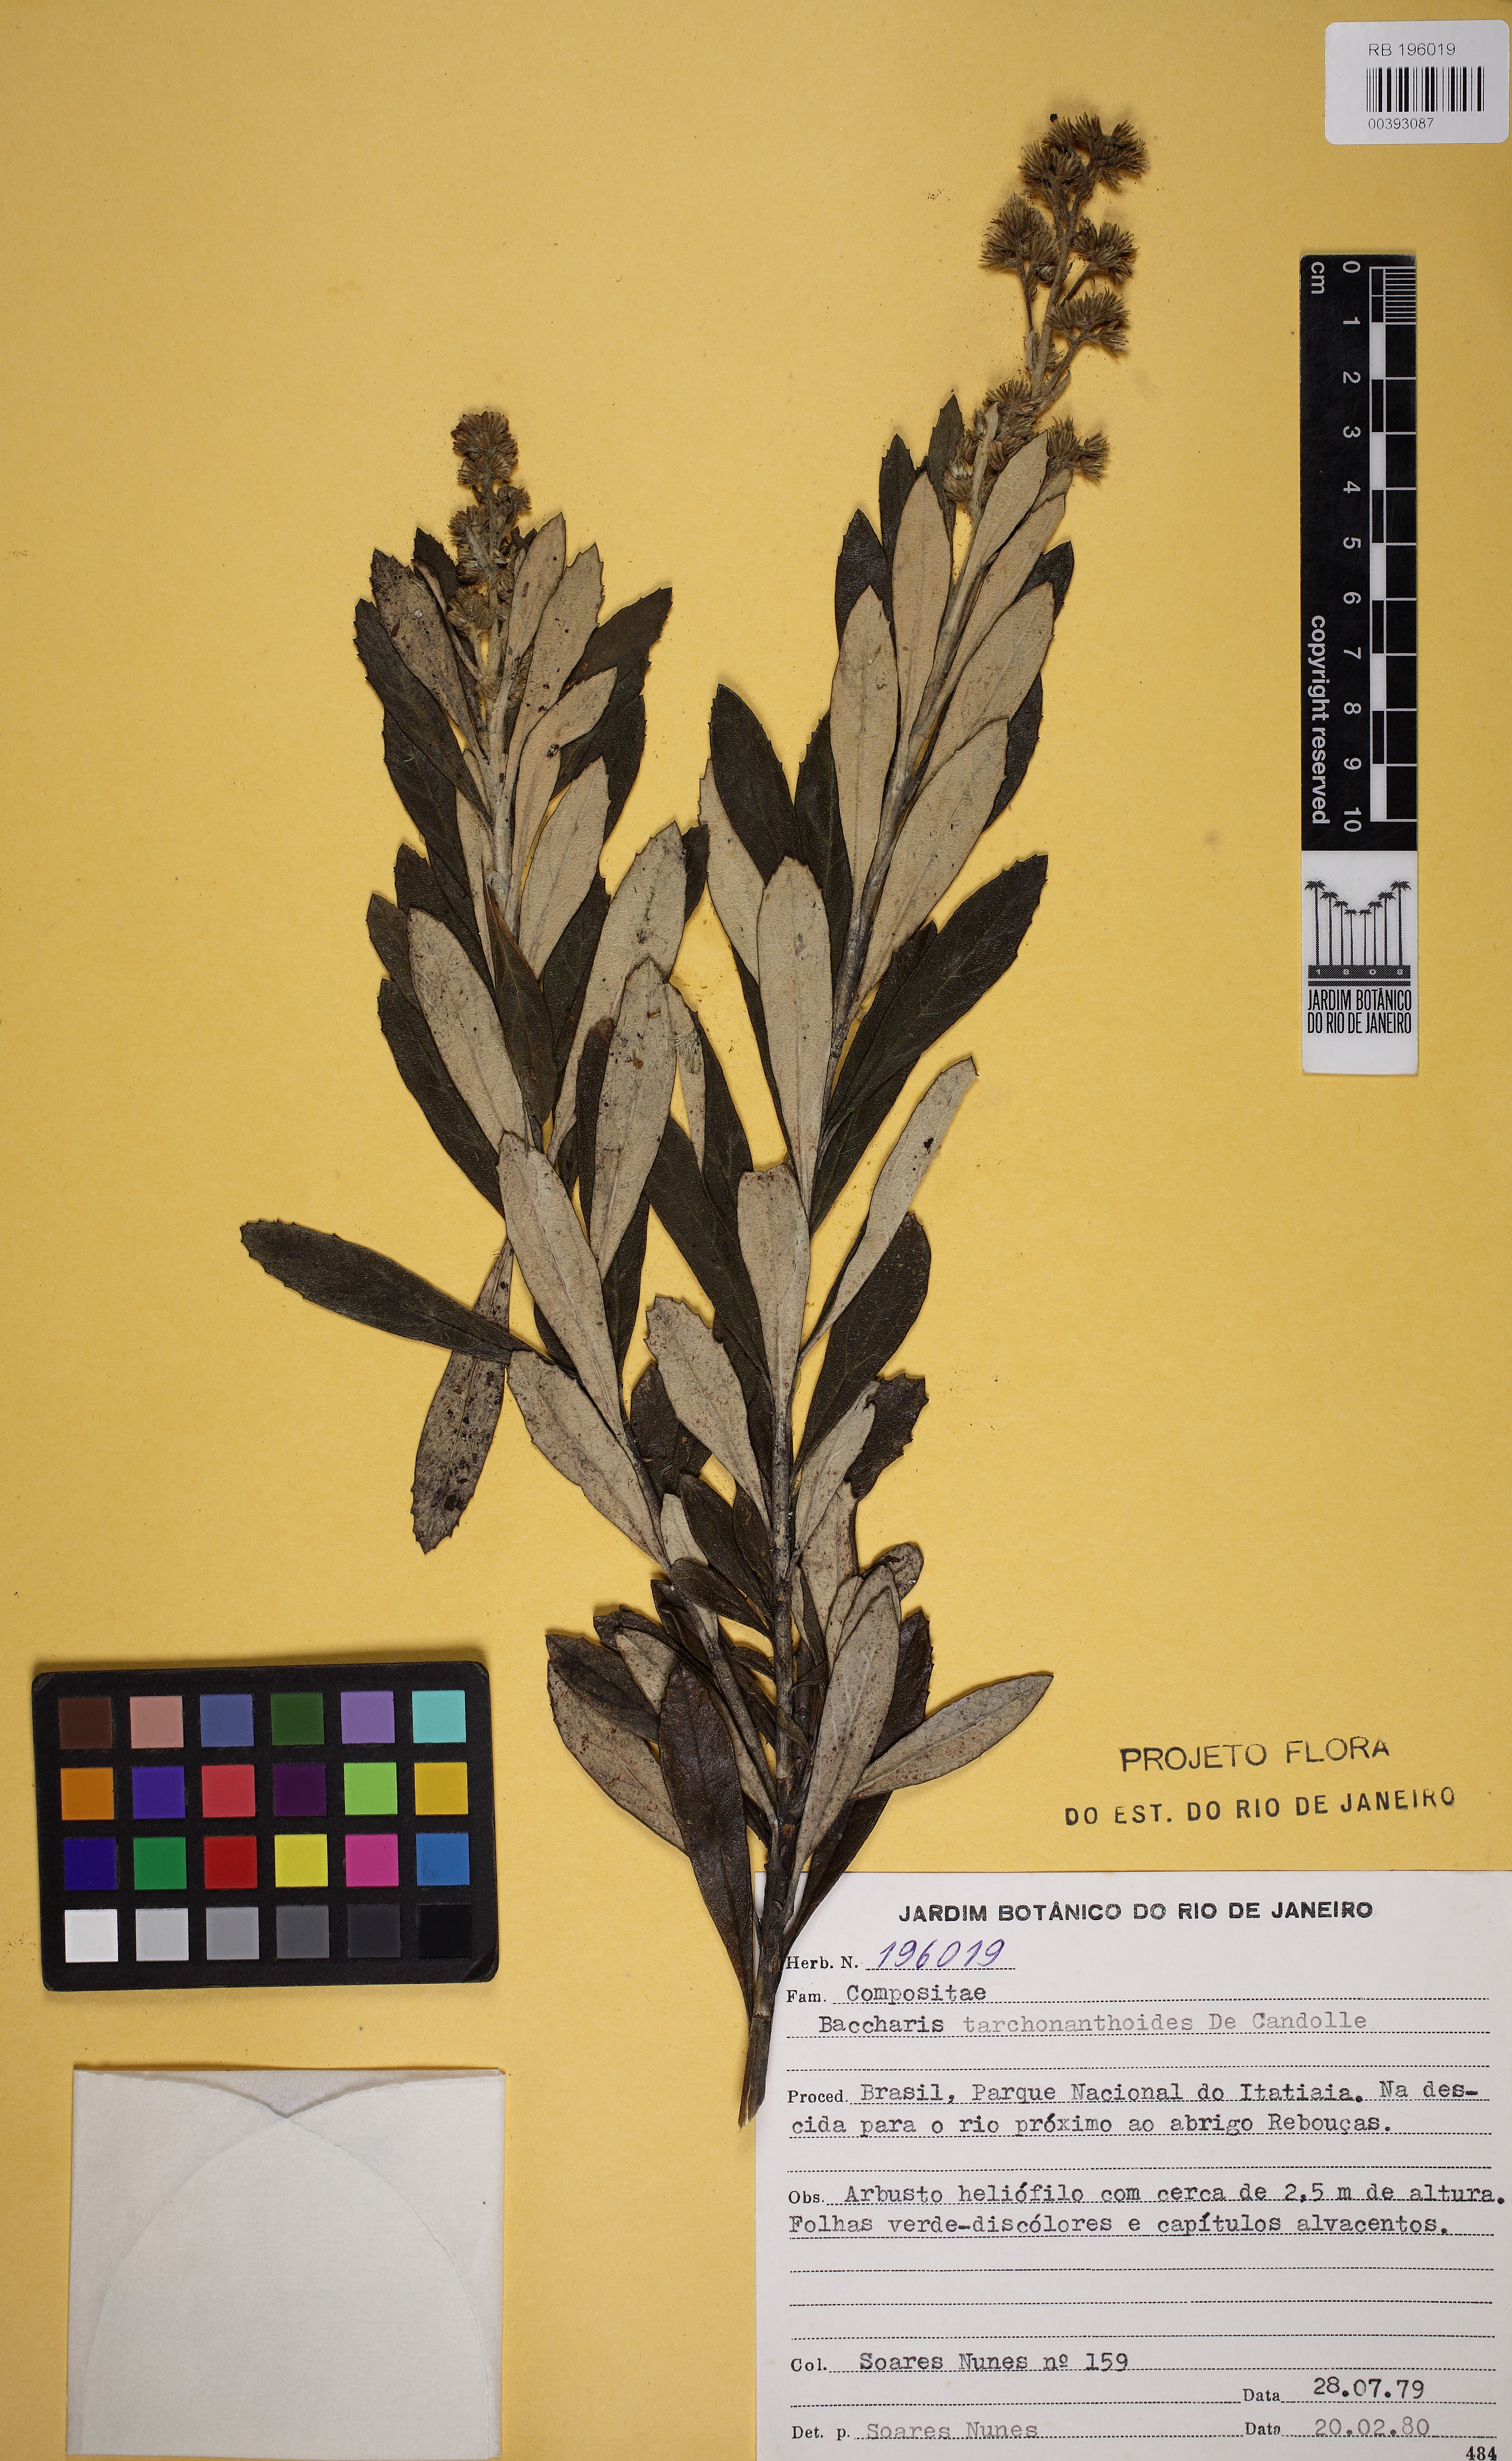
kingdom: Plantae
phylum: Tracheophyta
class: Magnoliopsida
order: Asterales
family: Asteraceae
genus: Baccharis
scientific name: Baccharis tarchonanthoides
